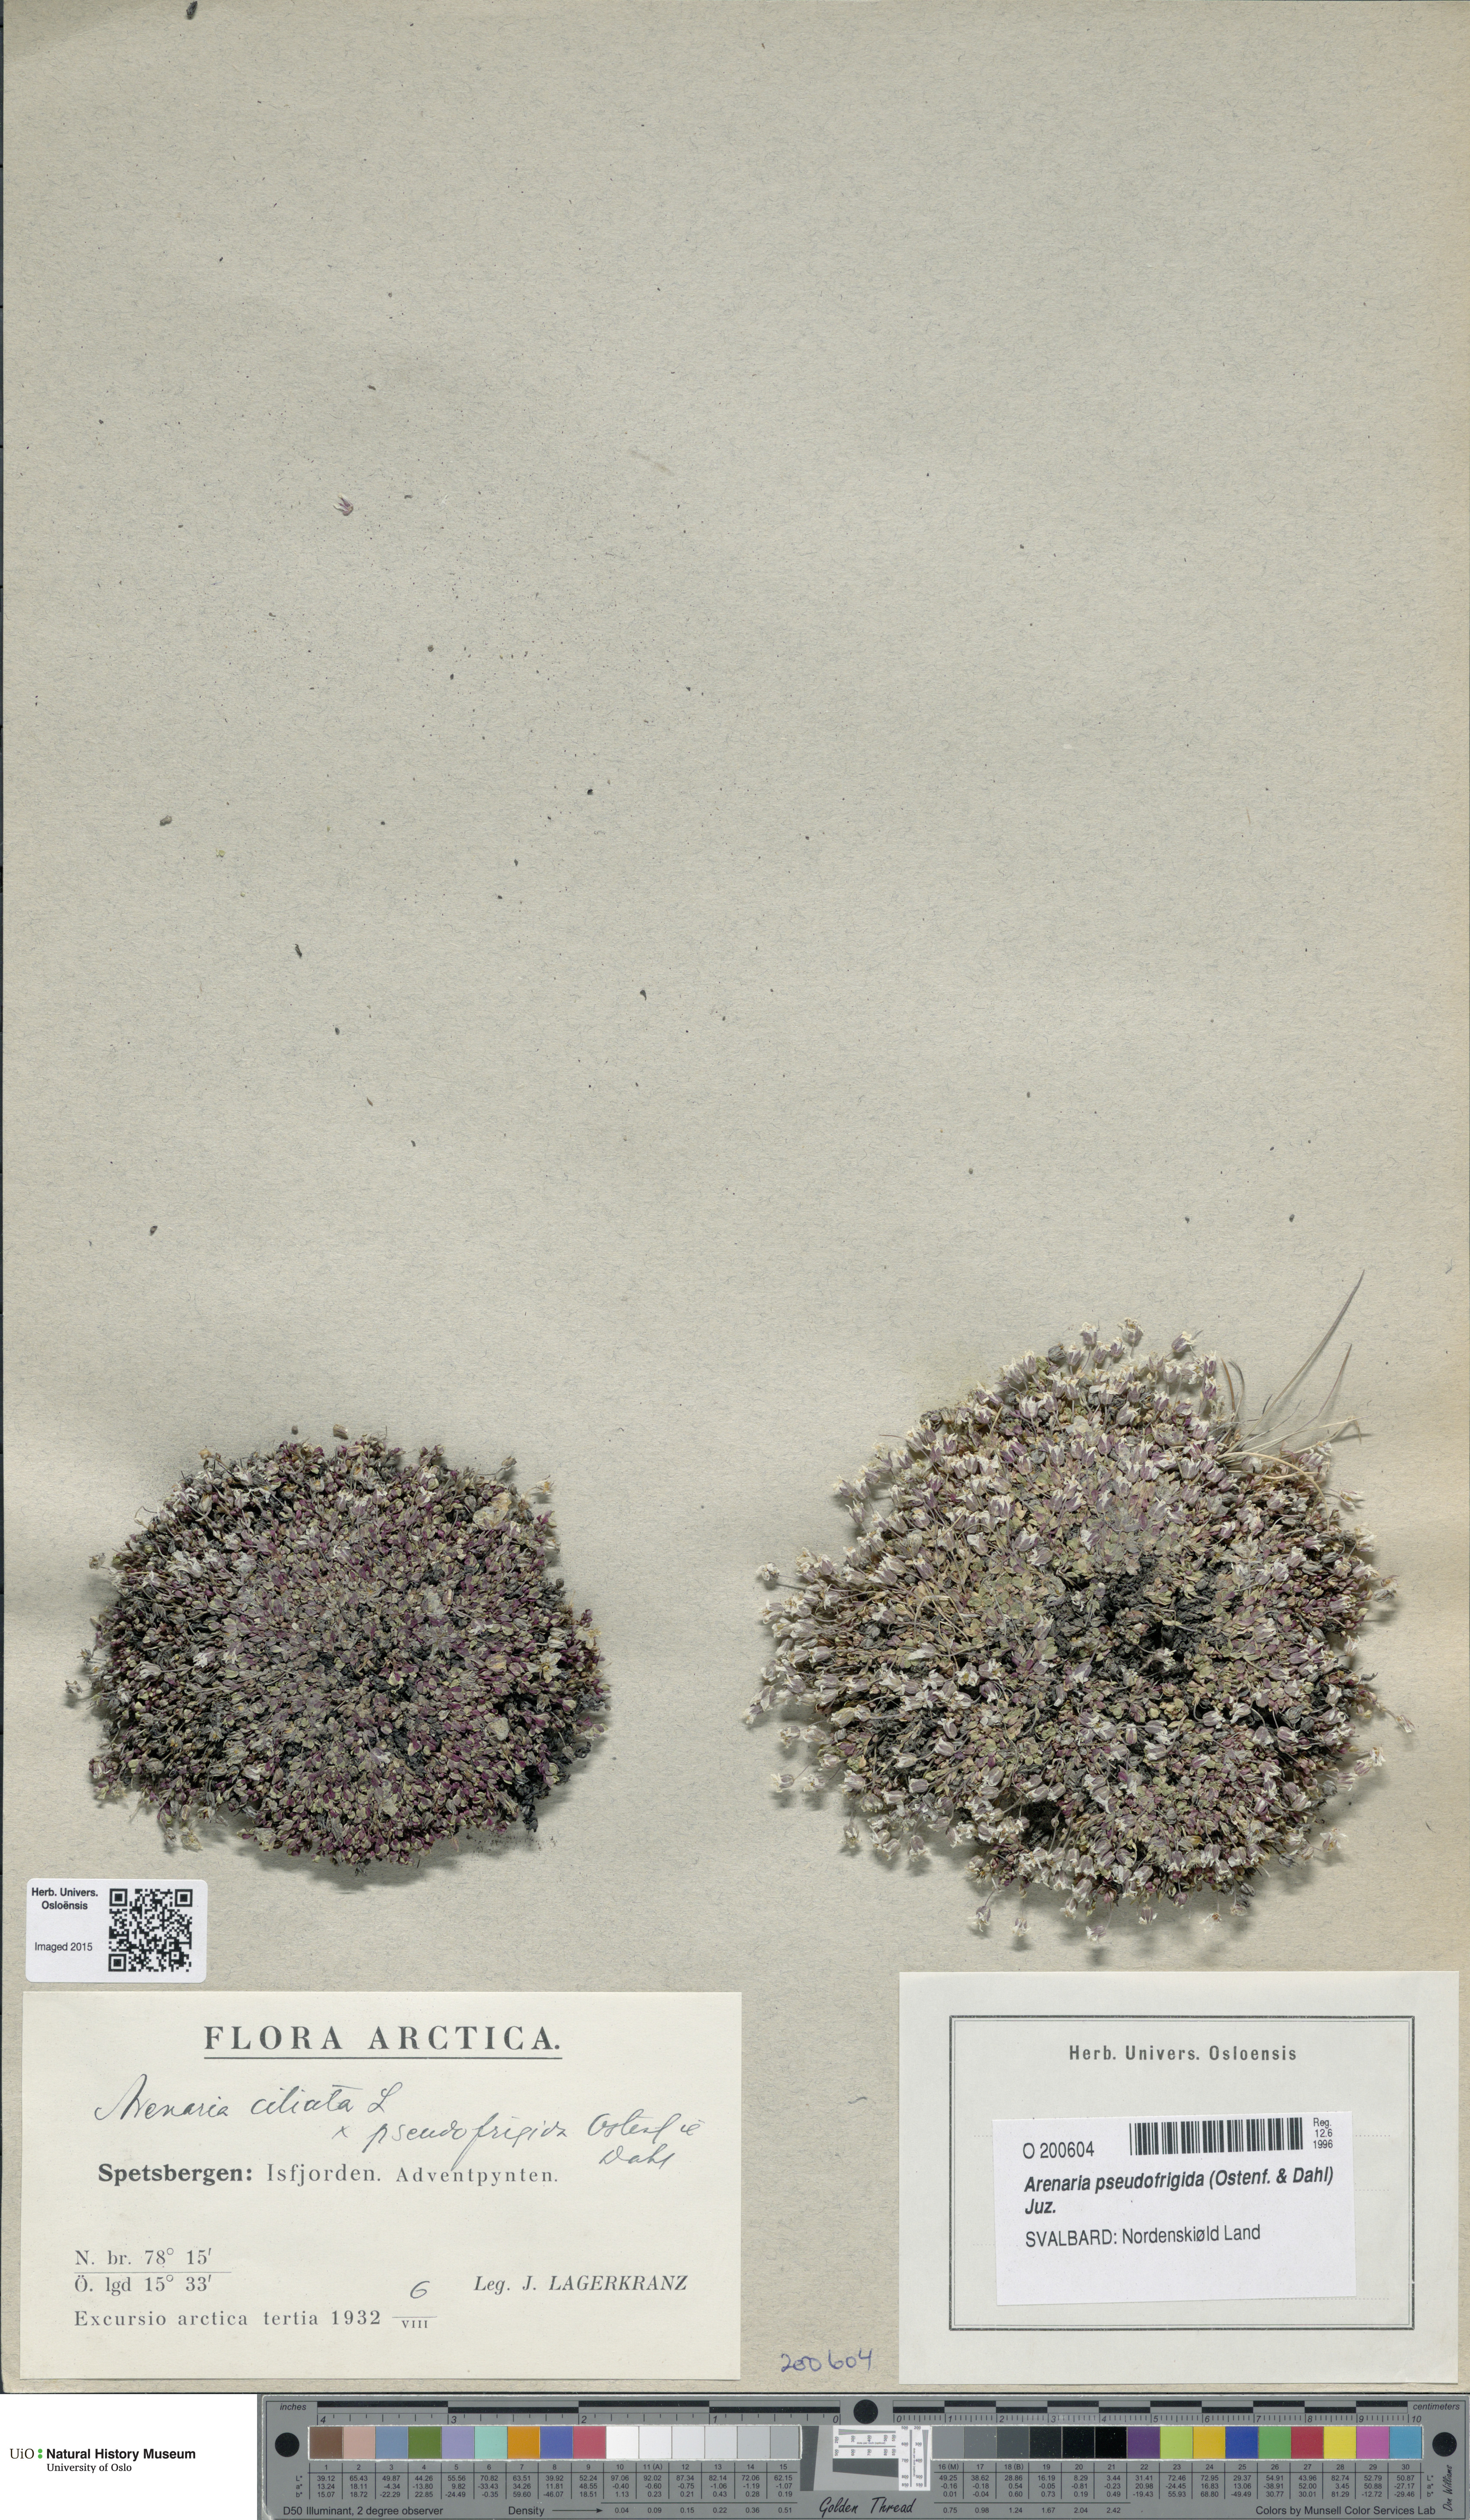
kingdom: Plantae
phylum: Tracheophyta
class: Magnoliopsida
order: Caryophyllales
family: Caryophyllaceae
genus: Arenaria
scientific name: Arenaria pseudofrigida
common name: Tundra sandwort
